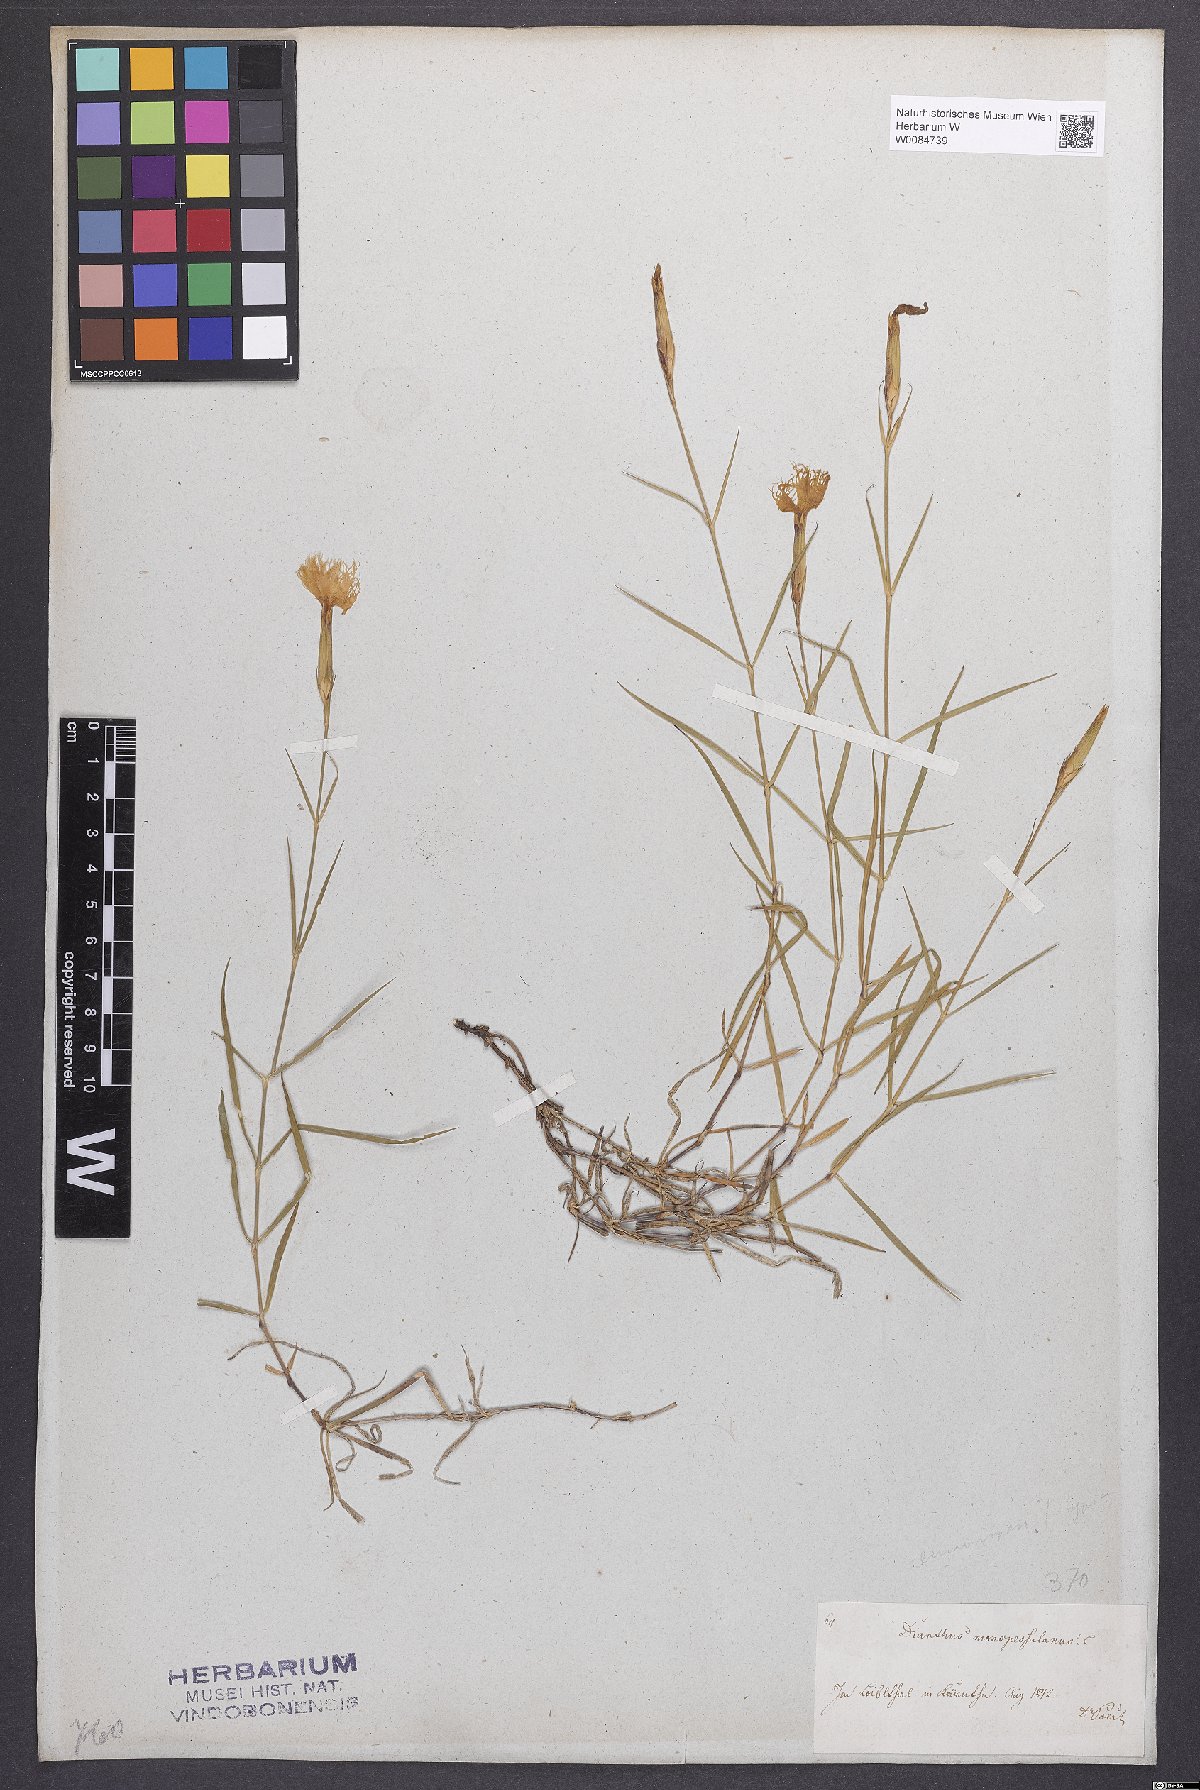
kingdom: Plantae
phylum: Tracheophyta
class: Magnoliopsida
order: Caryophyllales
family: Caryophyllaceae
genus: Dianthus
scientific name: Dianthus hyssopifolius
